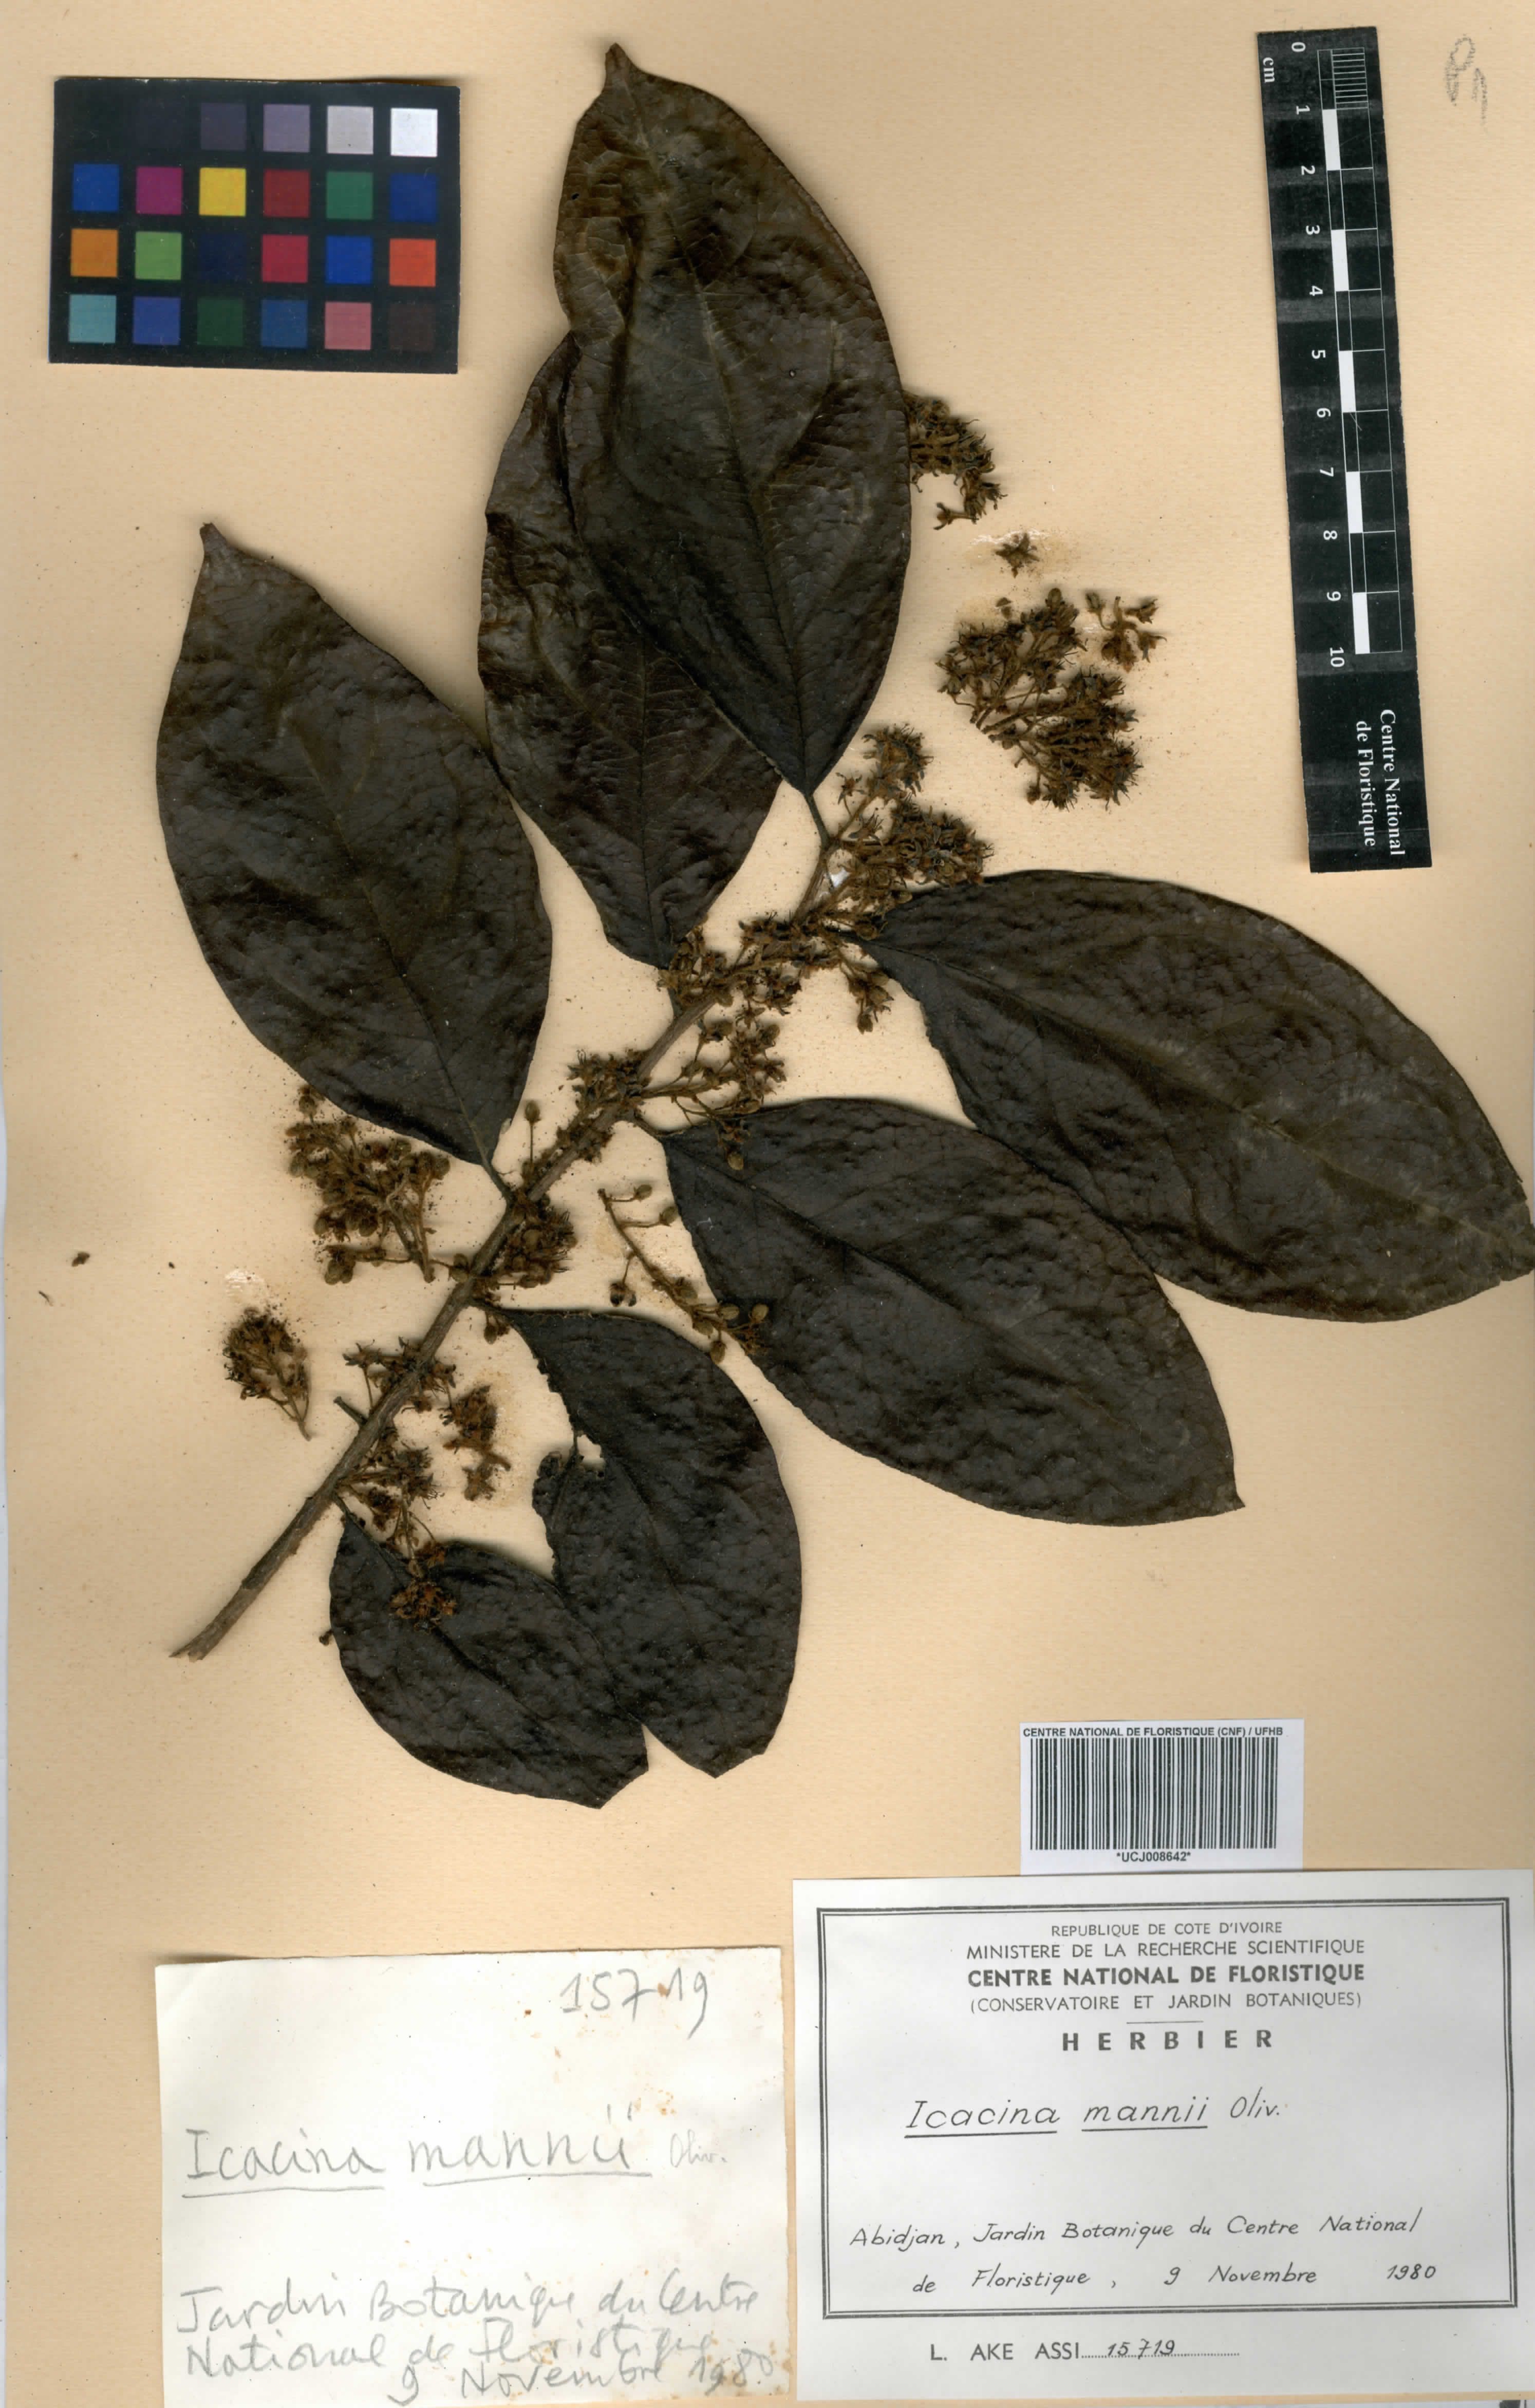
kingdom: Plantae
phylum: Tracheophyta
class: Magnoliopsida
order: Icacinales
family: Icacinaceae
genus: Icacina
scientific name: Icacina mannii
